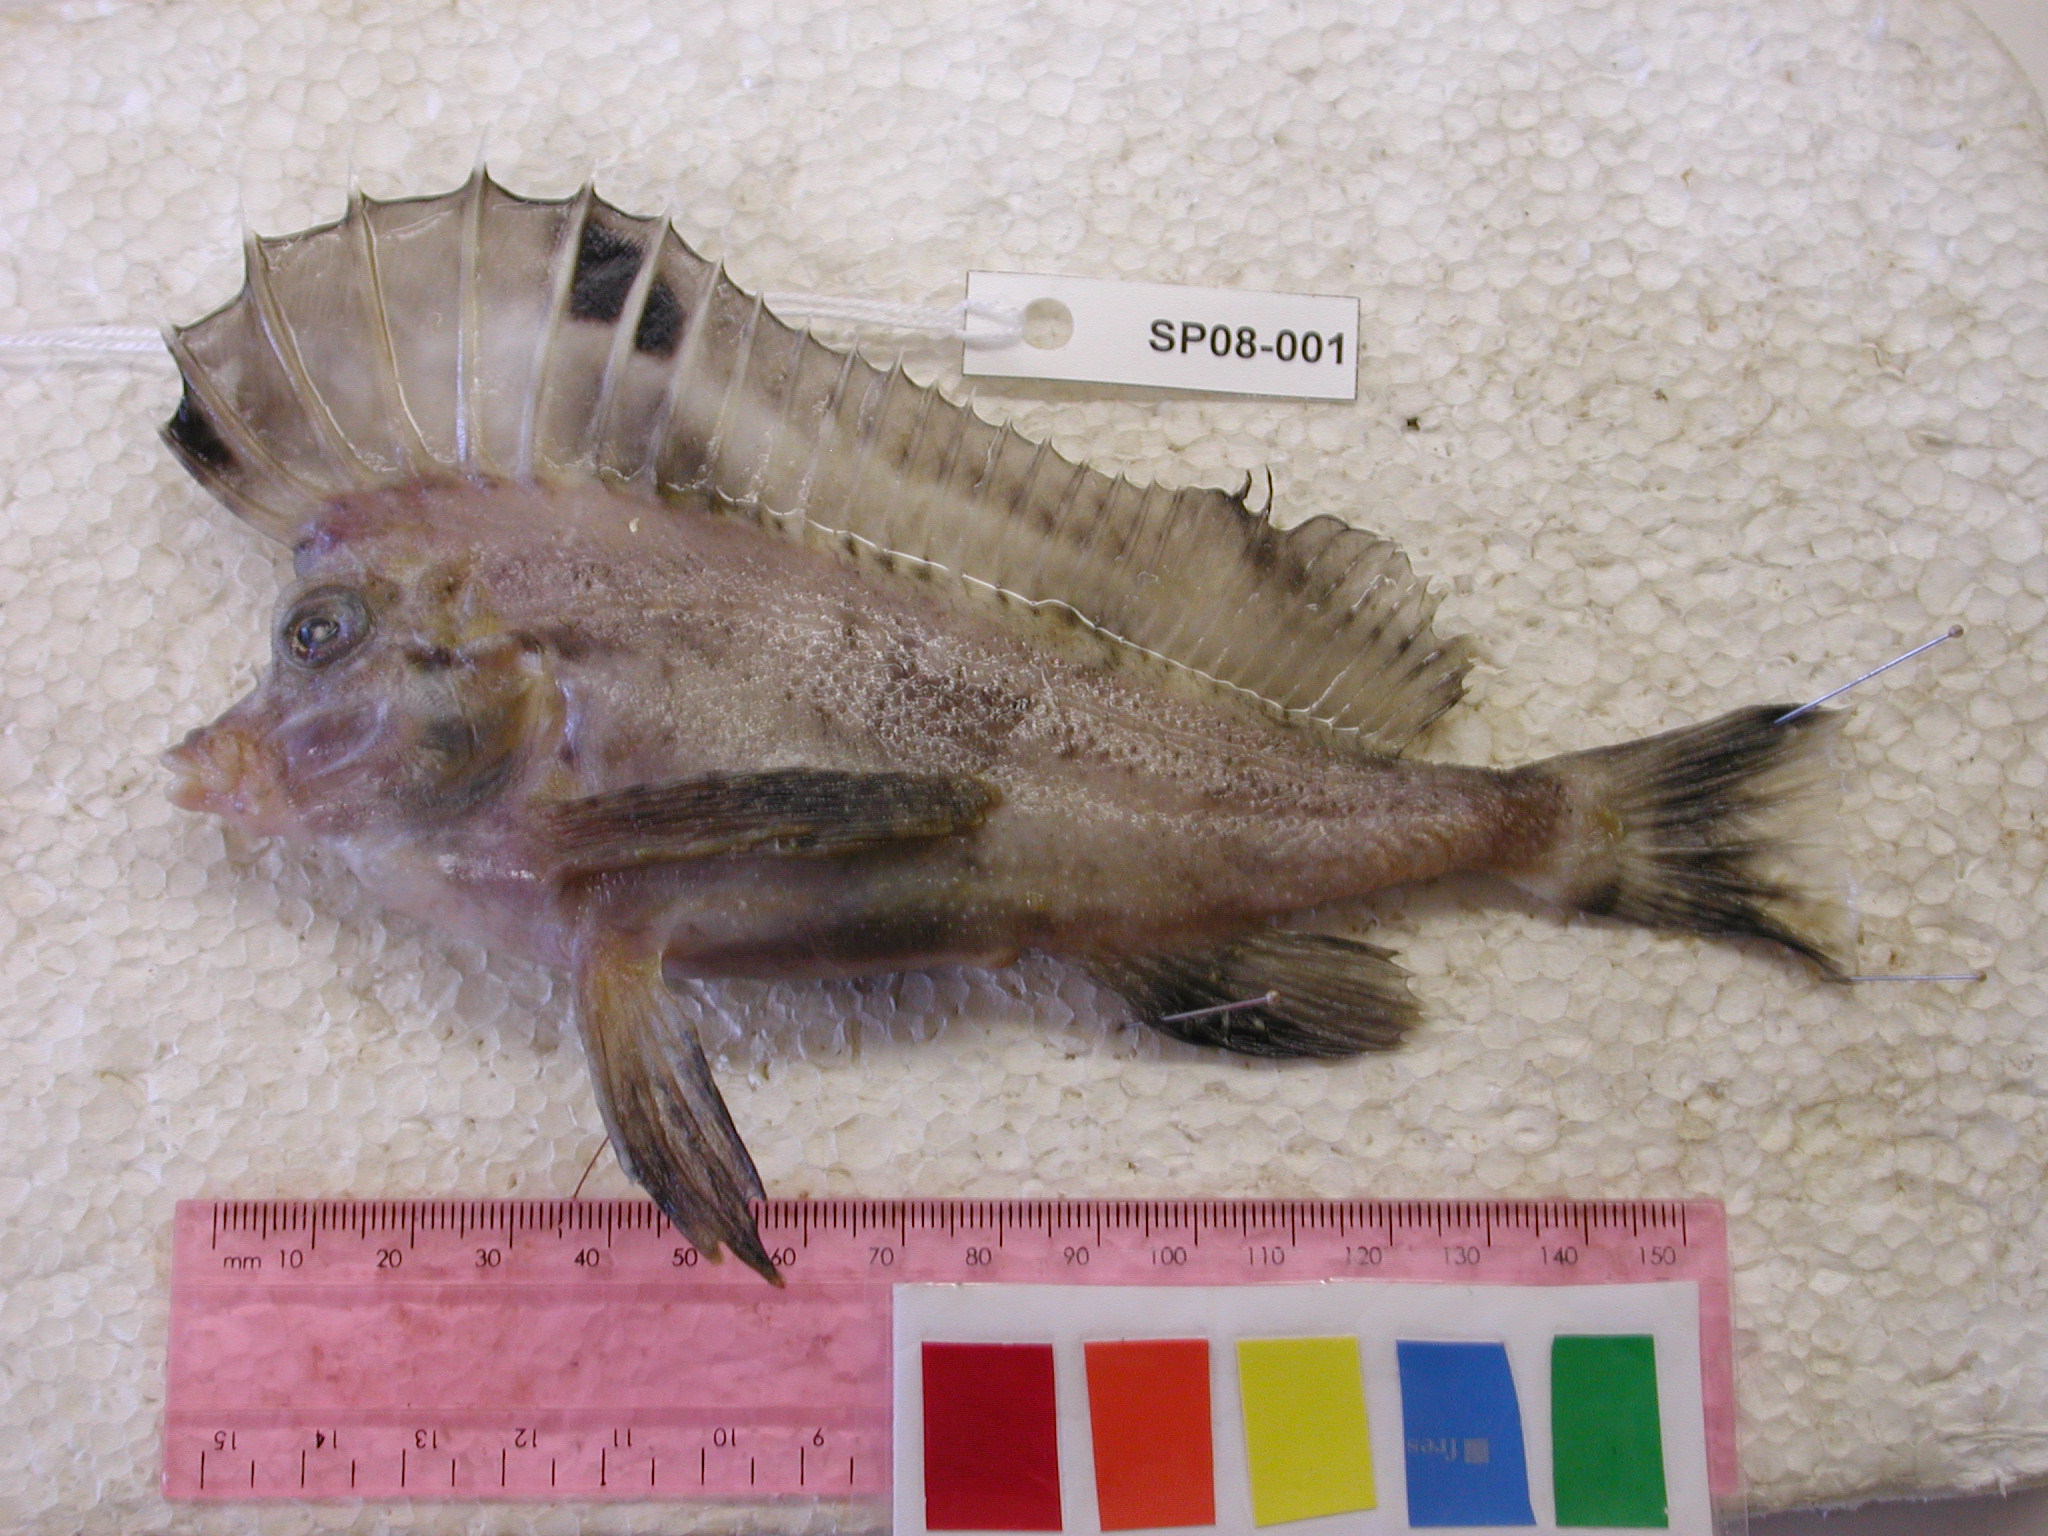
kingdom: Animalia
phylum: Chordata
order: Scorpaeniformes
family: Congiopodidae
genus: Congiopodus
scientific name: Congiopodus spinifer
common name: Spinenose horsefish
